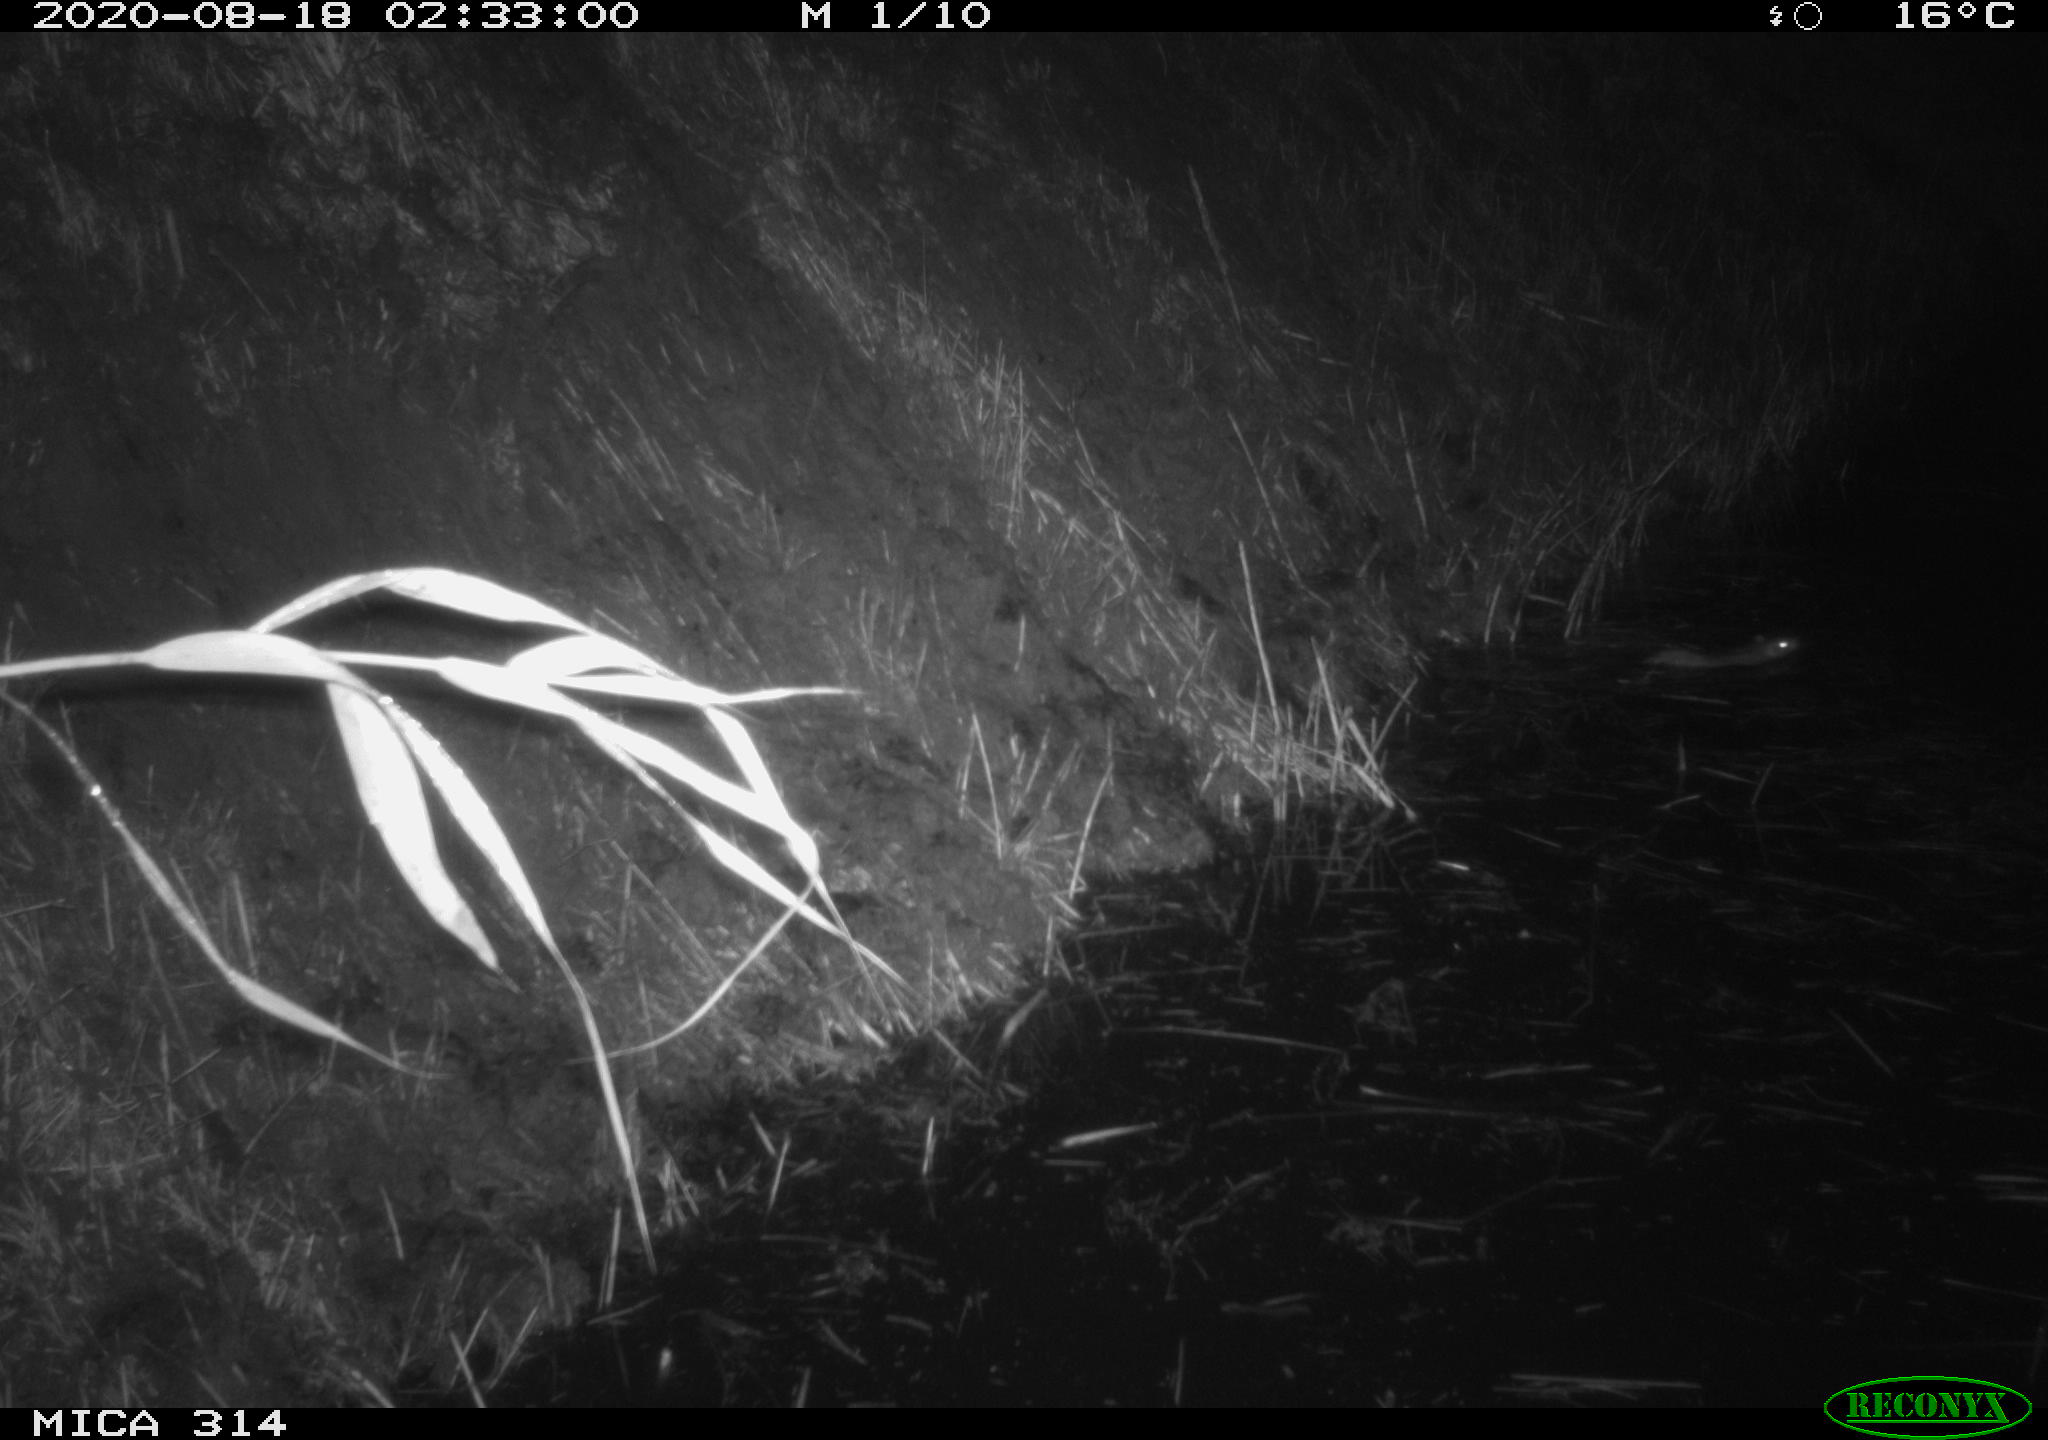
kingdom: Animalia
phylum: Chordata
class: Mammalia
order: Rodentia
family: Muridae
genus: Rattus
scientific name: Rattus norvegicus
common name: Brown rat
